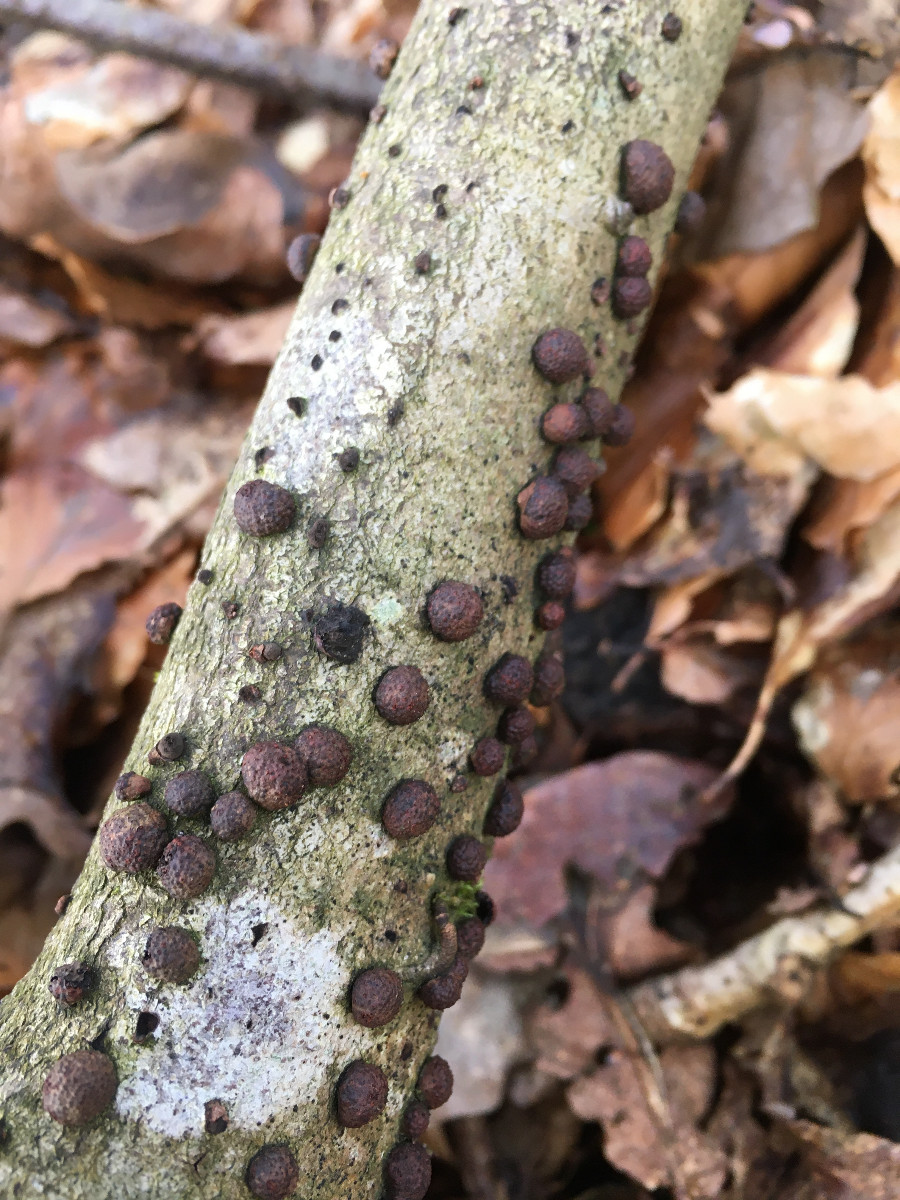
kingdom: Fungi
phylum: Ascomycota
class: Sordariomycetes
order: Xylariales
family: Hypoxylaceae
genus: Hypoxylon
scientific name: Hypoxylon fragiforme
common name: kuljordbær
